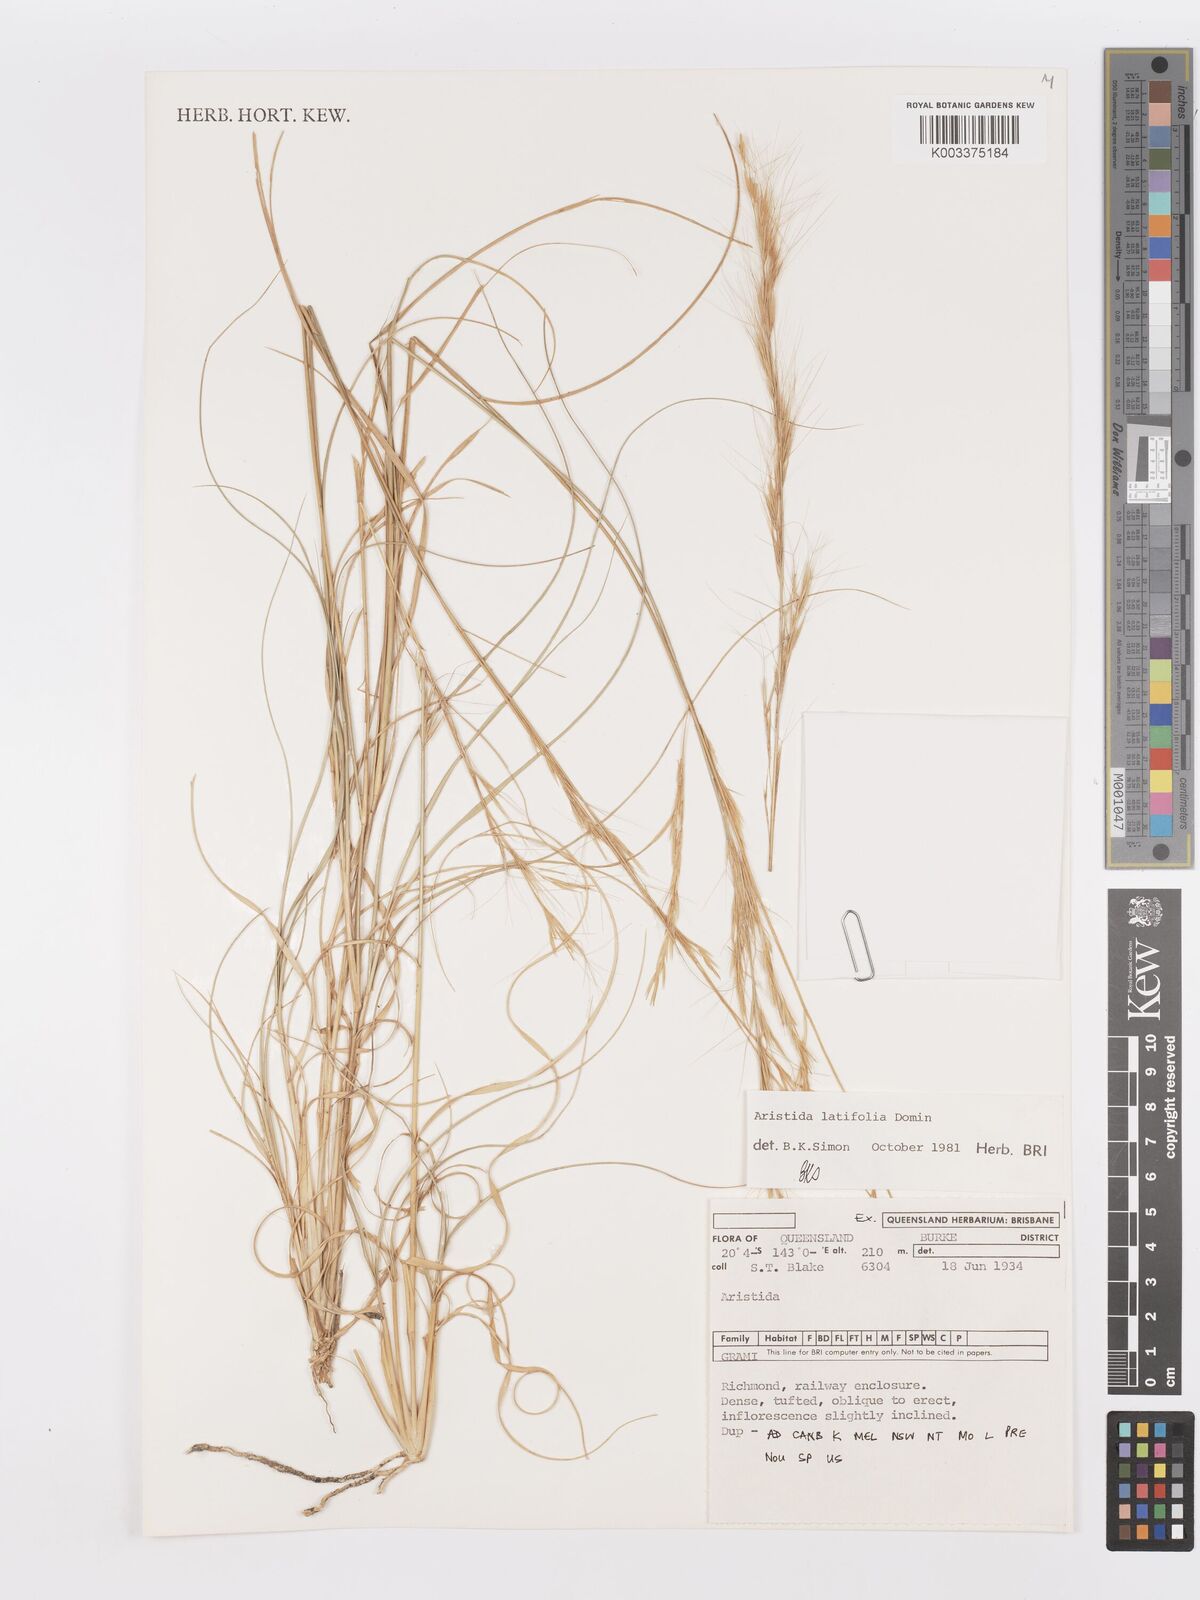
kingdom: Plantae
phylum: Tracheophyta
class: Liliopsida
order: Poales
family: Poaceae
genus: Aristida
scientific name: Aristida latifolia
